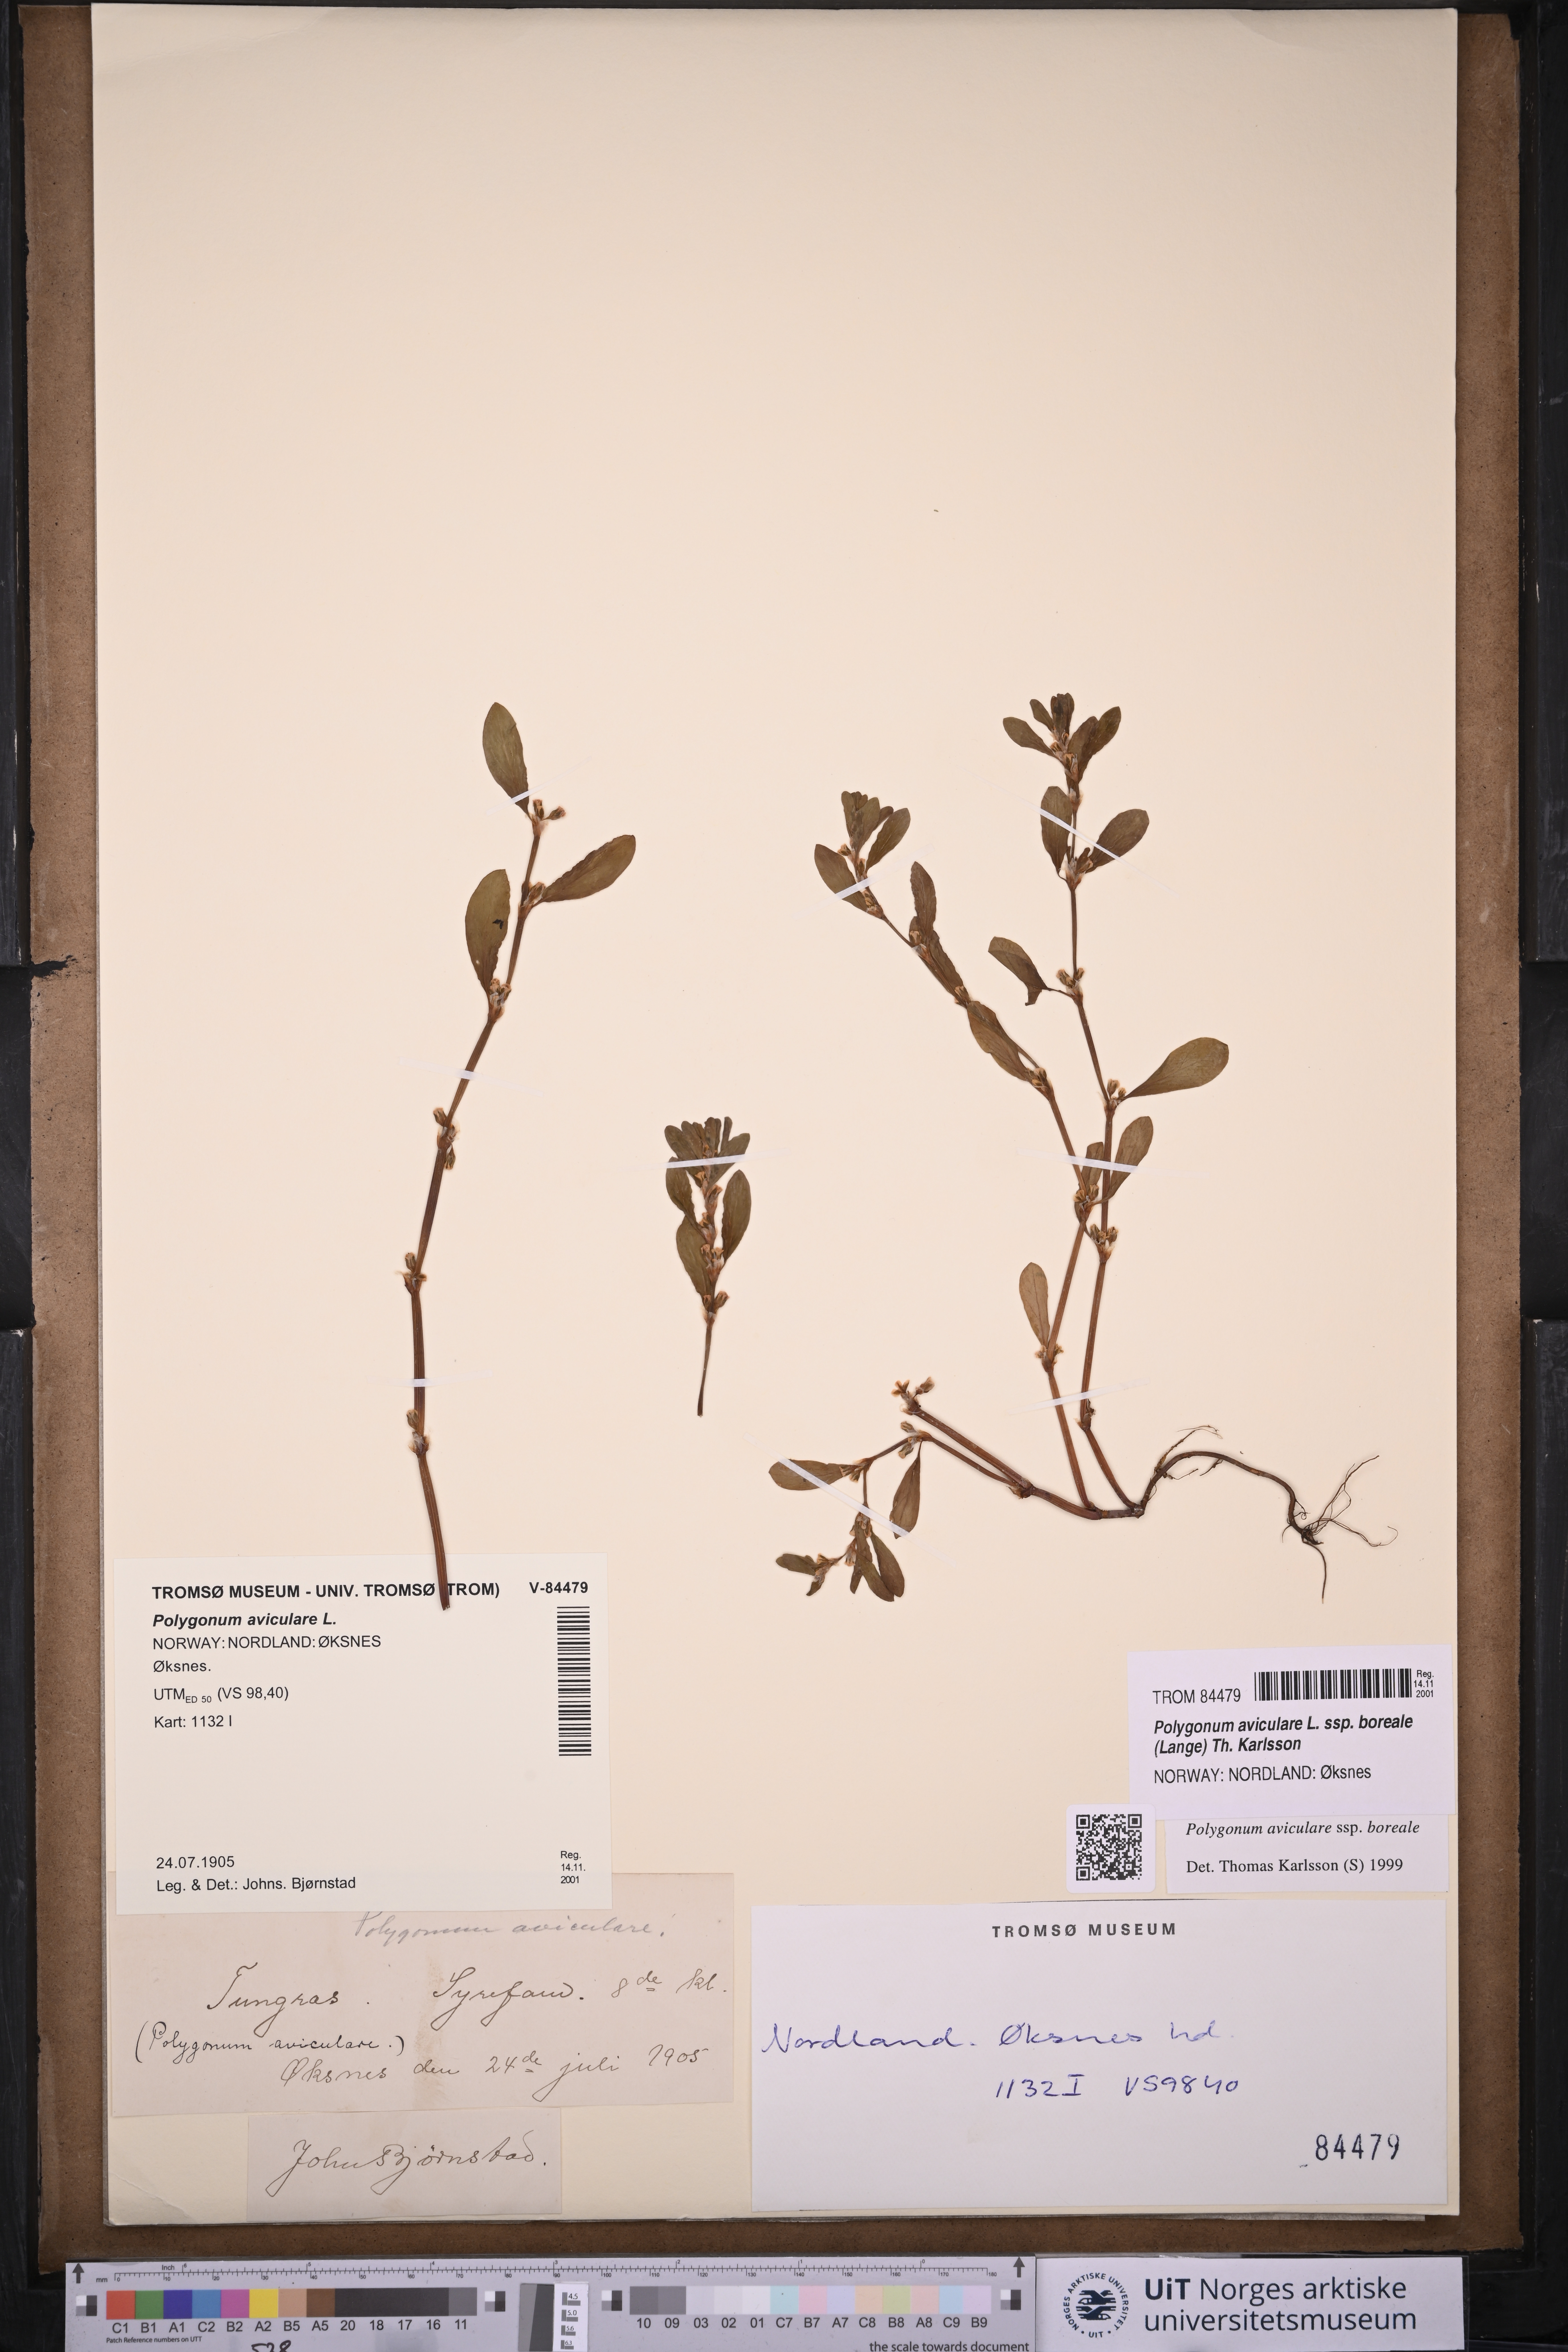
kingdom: Plantae
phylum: Tracheophyta
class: Magnoliopsida
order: Caryophyllales
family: Polygonaceae
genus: Polygonum
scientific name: Polygonum boreale
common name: Northern knotgrass
